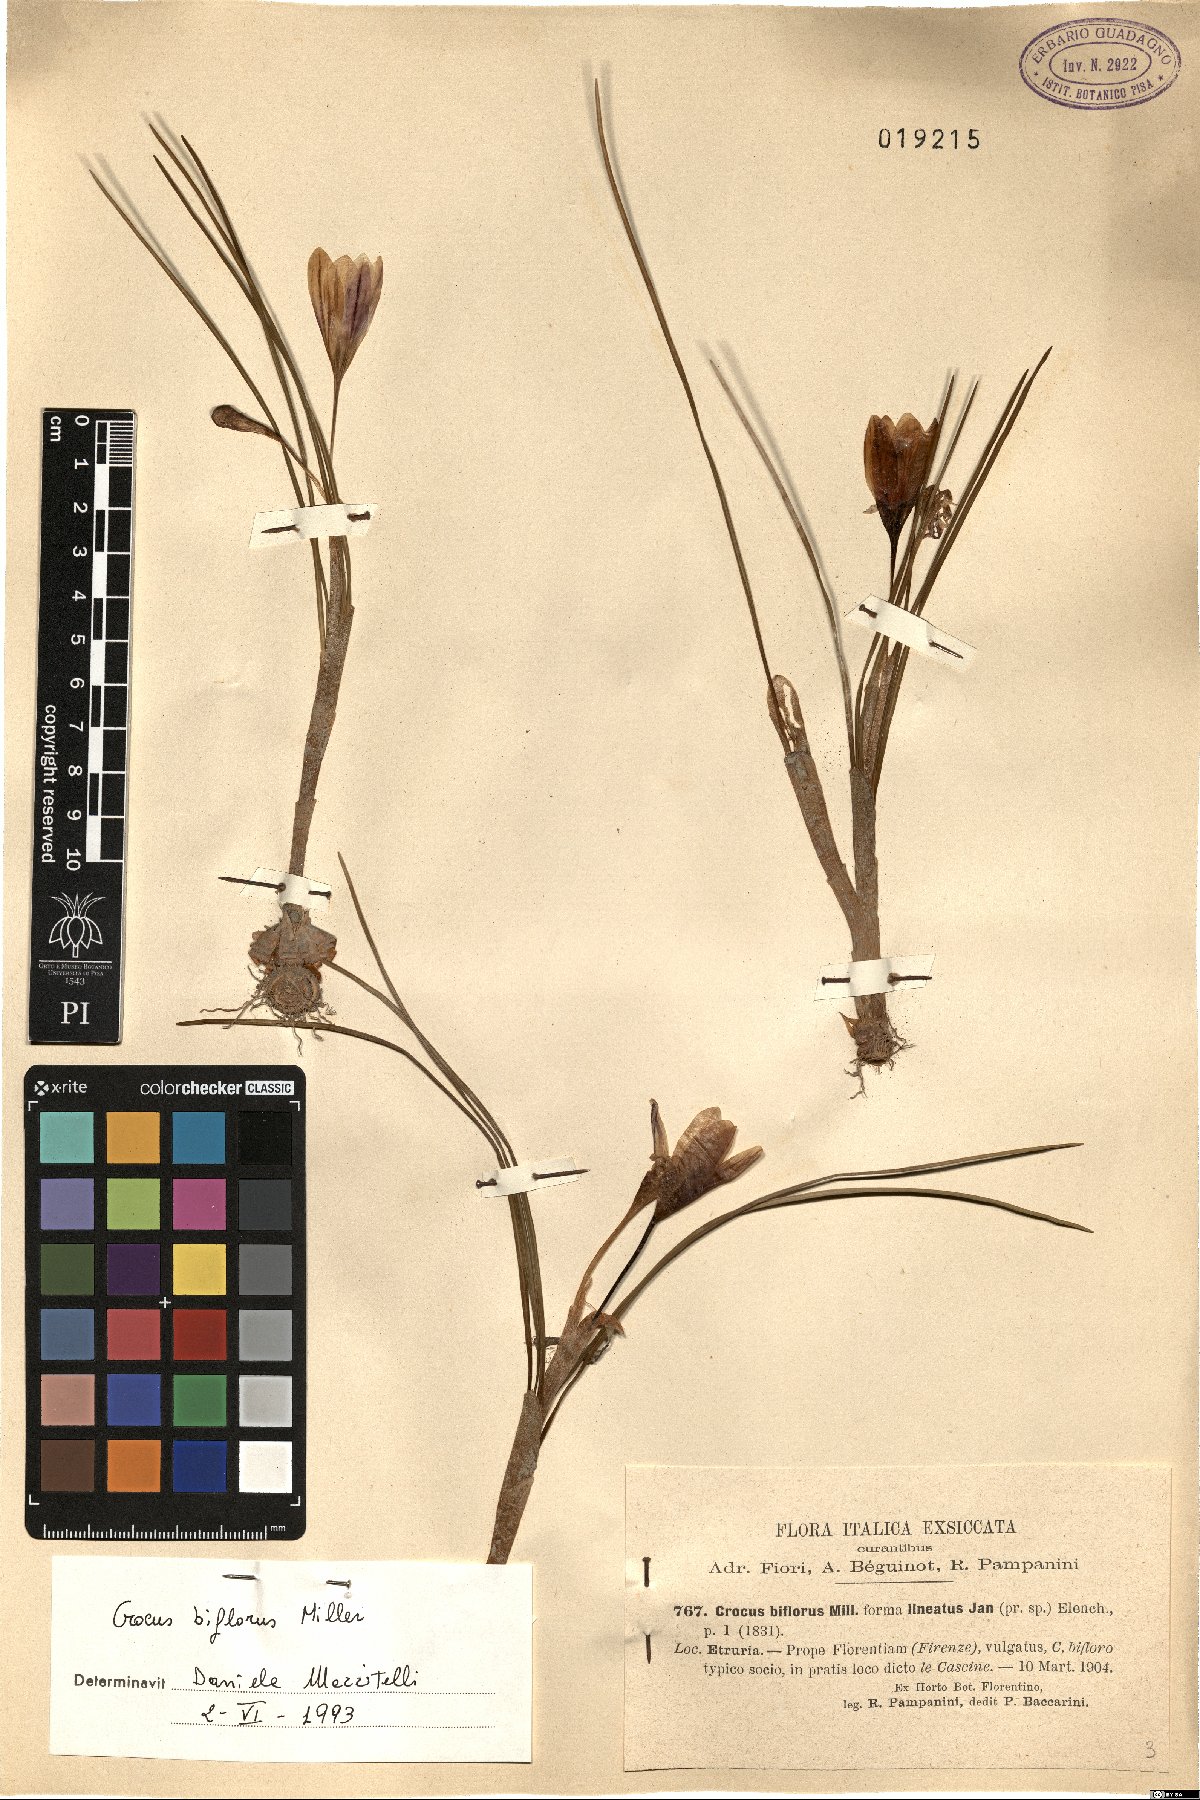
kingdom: Plantae
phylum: Tracheophyta
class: Liliopsida
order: Asparagales
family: Iridaceae
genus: Crocus
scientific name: Crocus biflorus
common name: Silvery crocus
